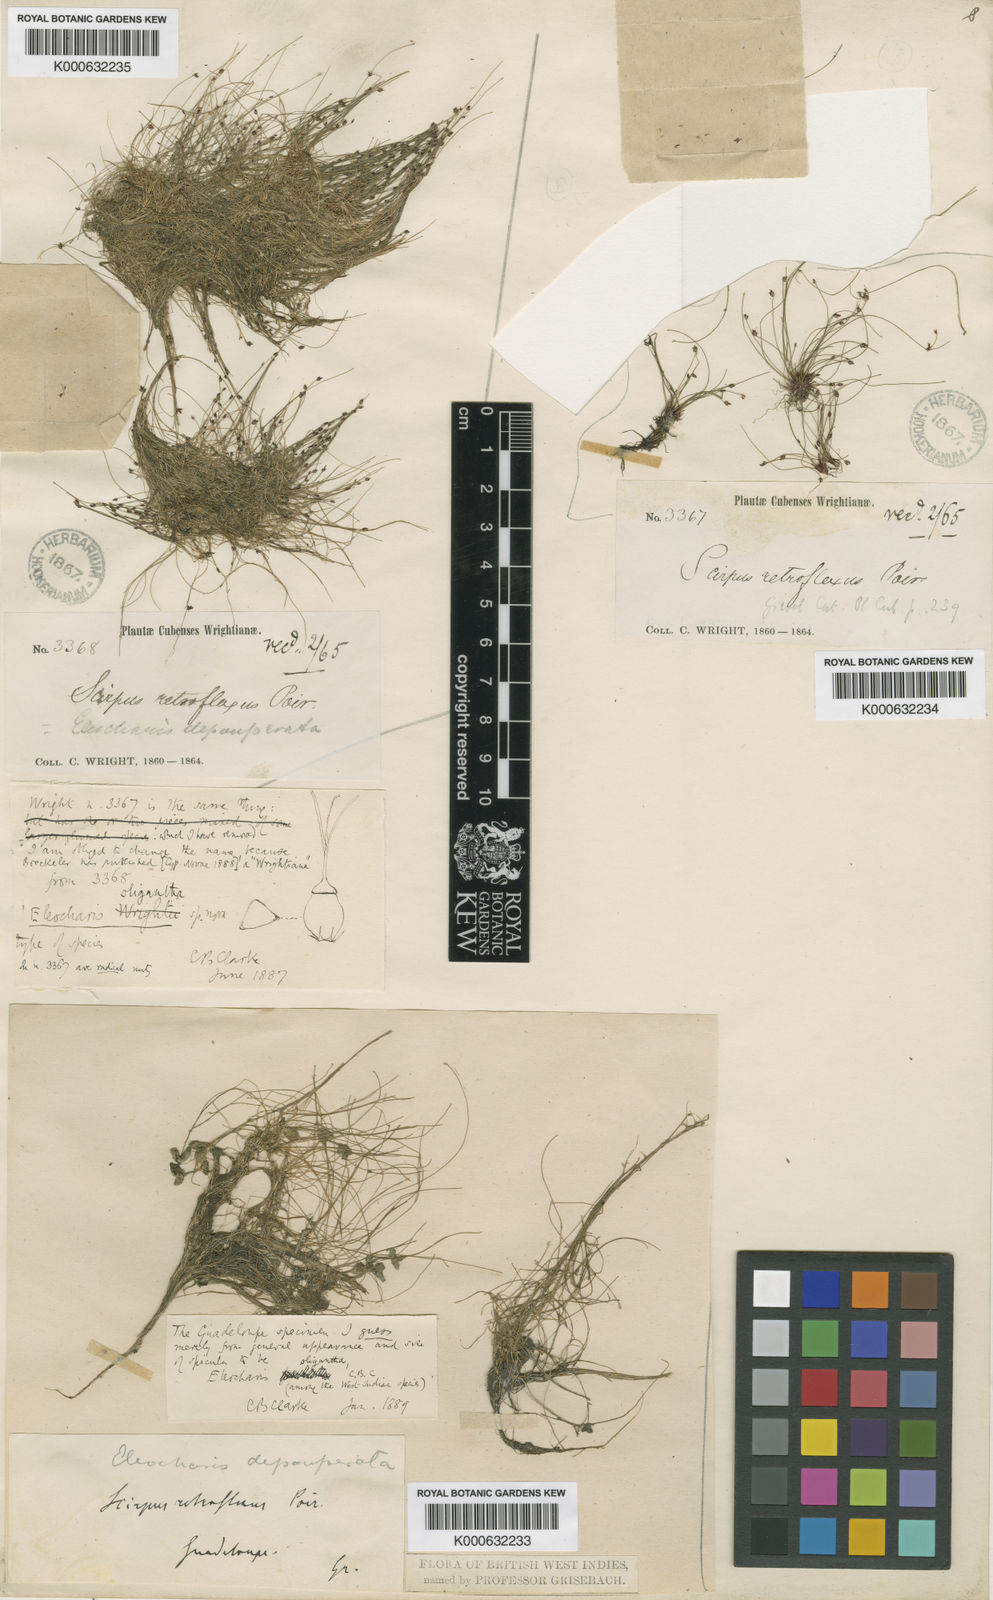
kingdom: Plantae
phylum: Tracheophyta
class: Liliopsida
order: Poales
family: Cyperaceae
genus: Eleocharis
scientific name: Eleocharis oligantha
